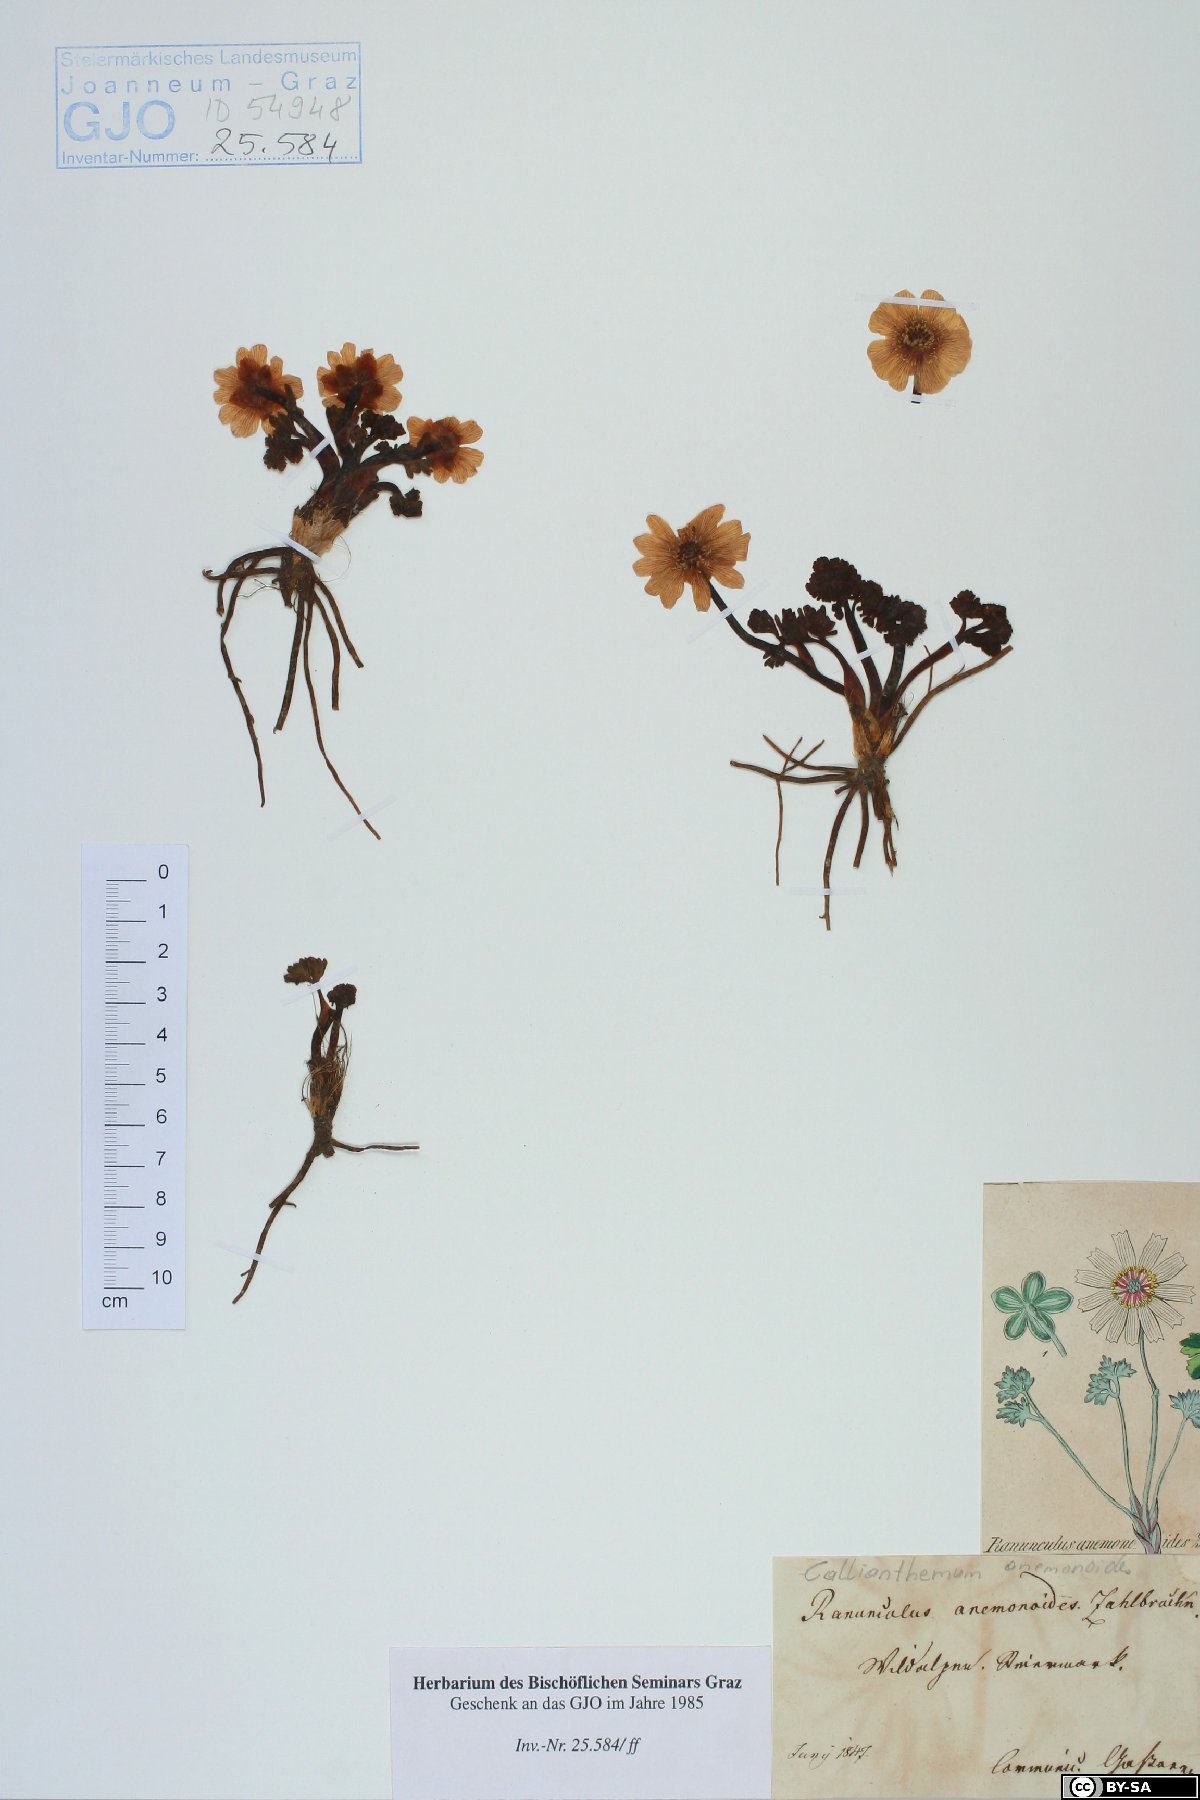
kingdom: Plantae
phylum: Tracheophyta
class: Magnoliopsida
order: Ranunculales
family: Ranunculaceae
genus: Callianthemum
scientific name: Callianthemum anemonoides
